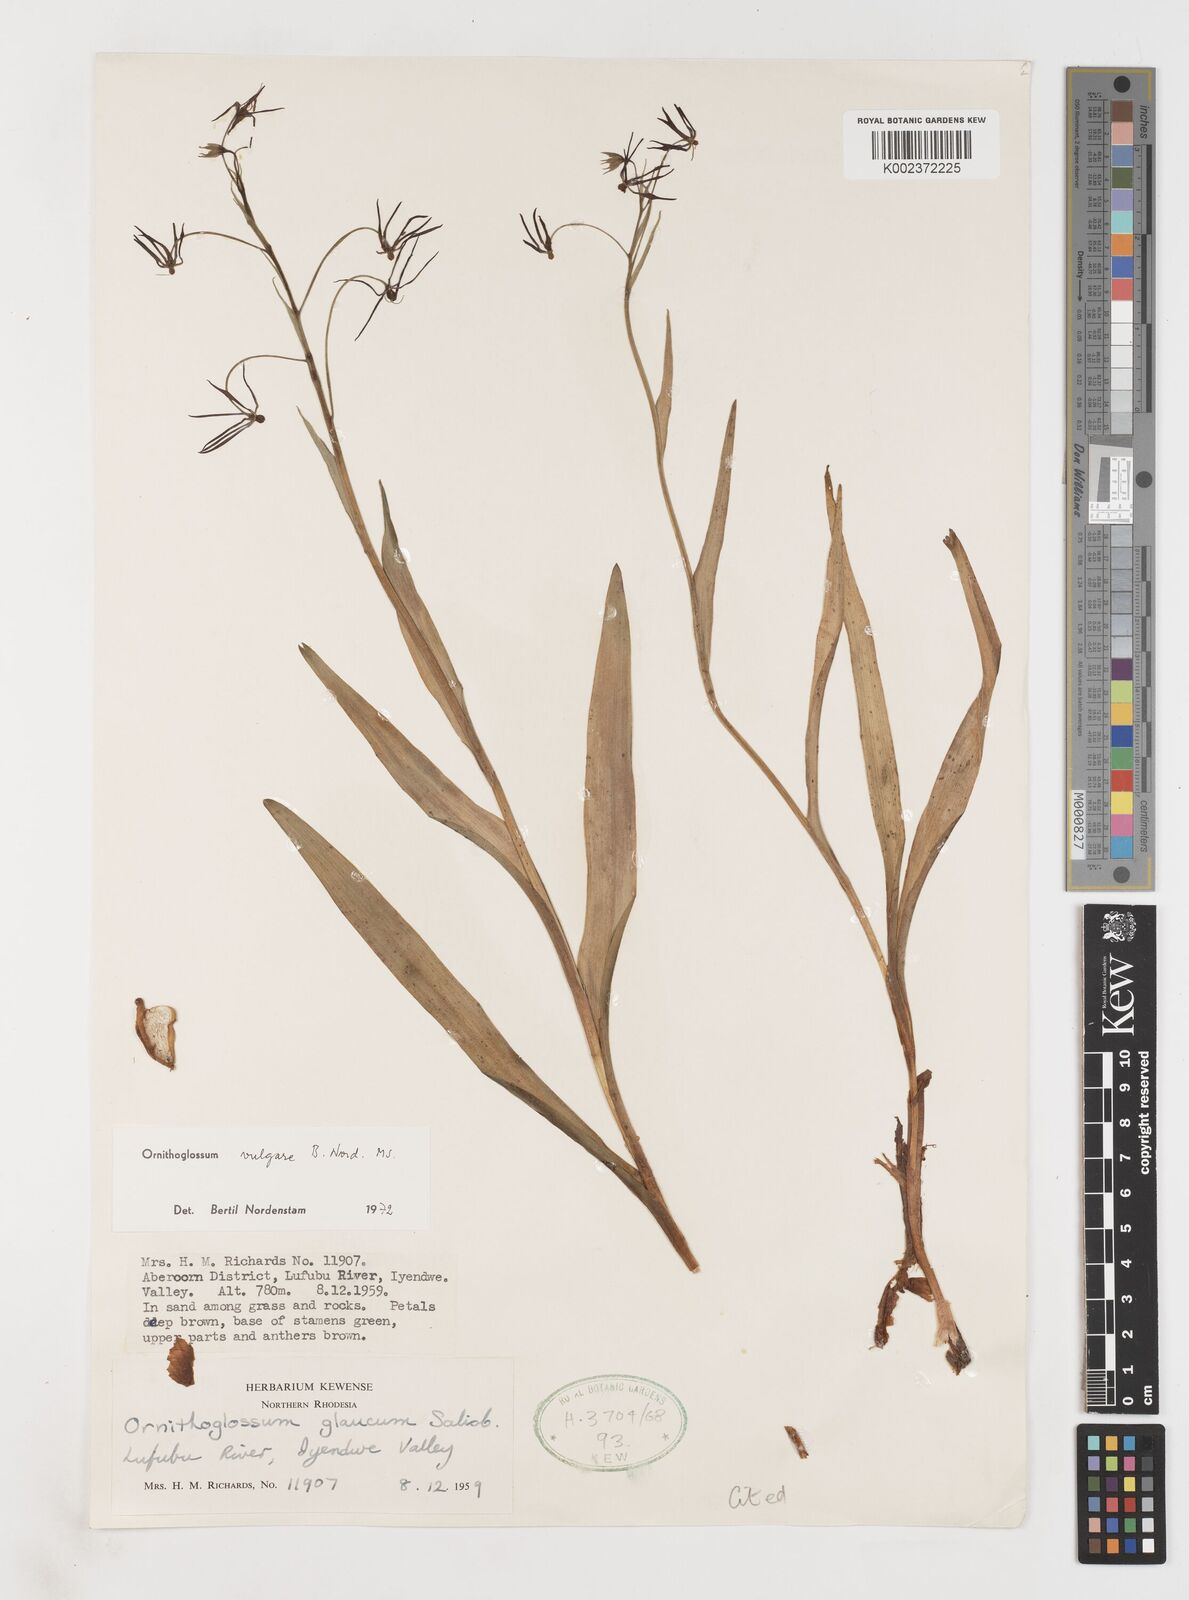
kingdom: Plantae
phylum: Tracheophyta
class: Liliopsida
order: Liliales
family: Colchicaceae
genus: Ornithoglossum
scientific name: Ornithoglossum vulgare
